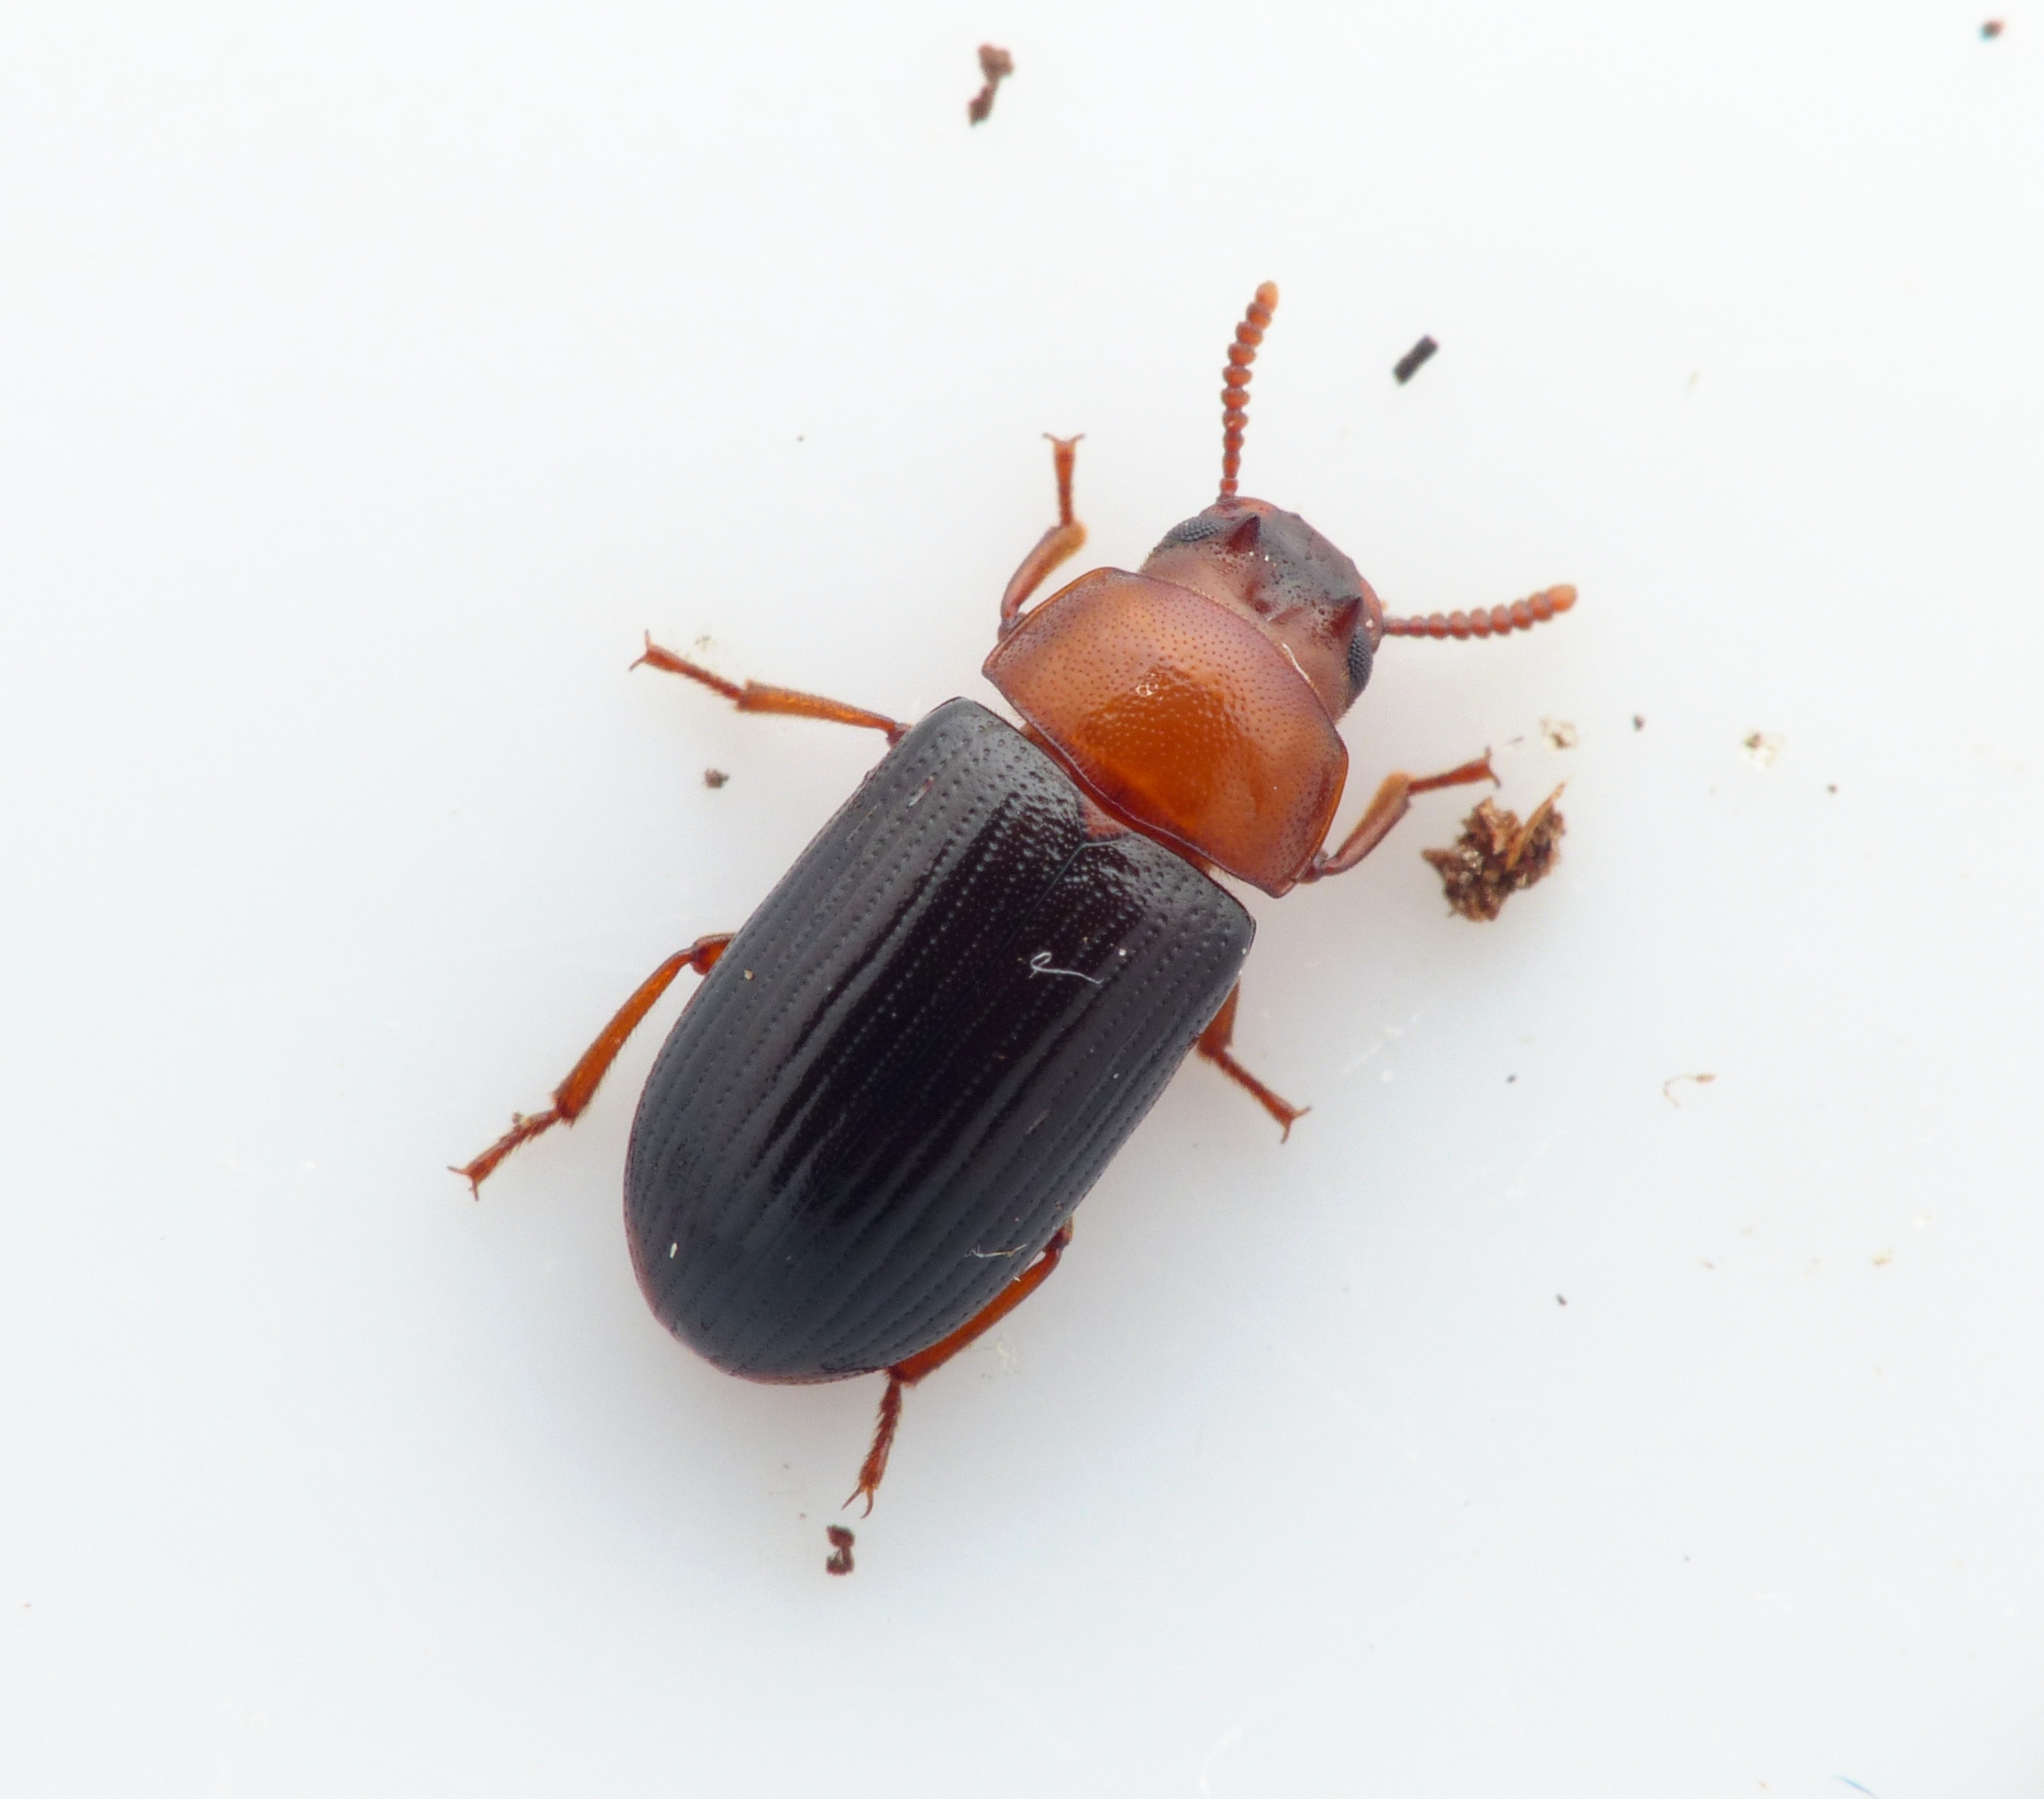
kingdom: Animalia
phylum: Arthropoda
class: Insecta
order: Coleoptera
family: Tenebrionidae
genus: Neomida
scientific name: Neomida haemorrhoidalis
